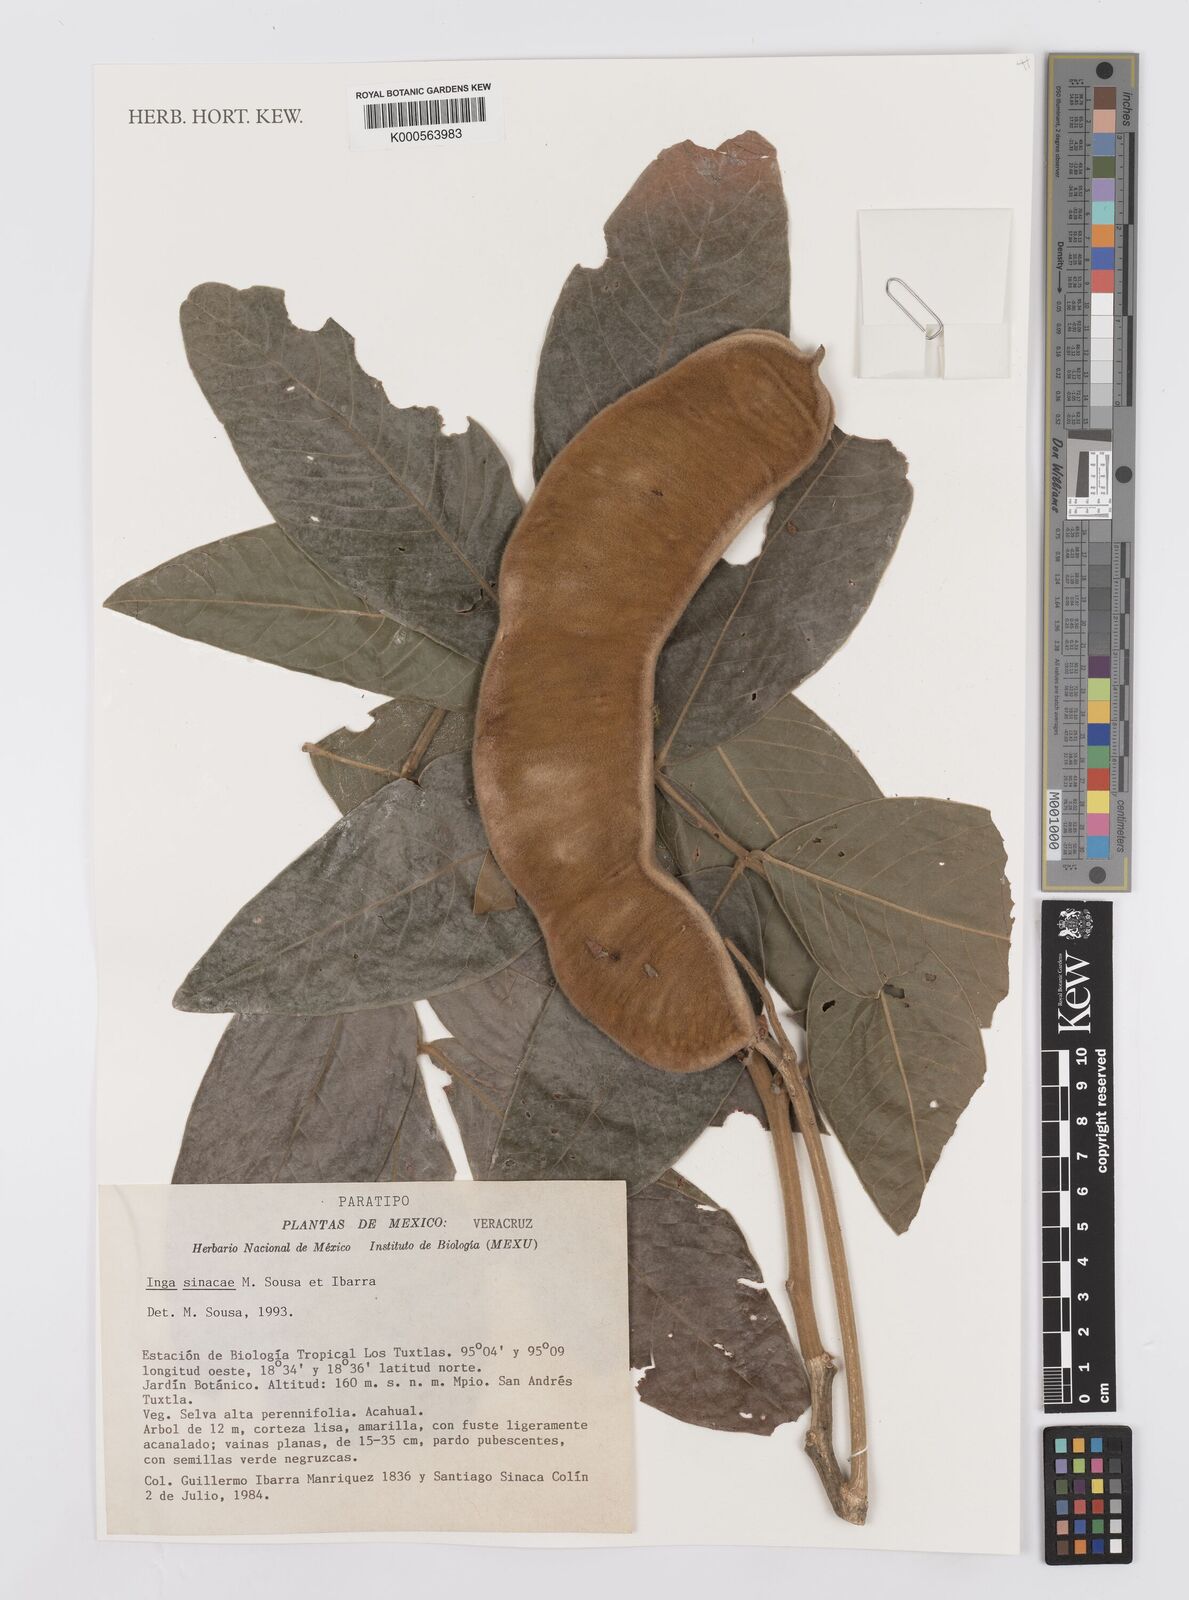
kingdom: Plantae
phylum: Tracheophyta
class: Magnoliopsida
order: Fabales
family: Fabaceae
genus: Inga
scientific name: Inga sinacae
